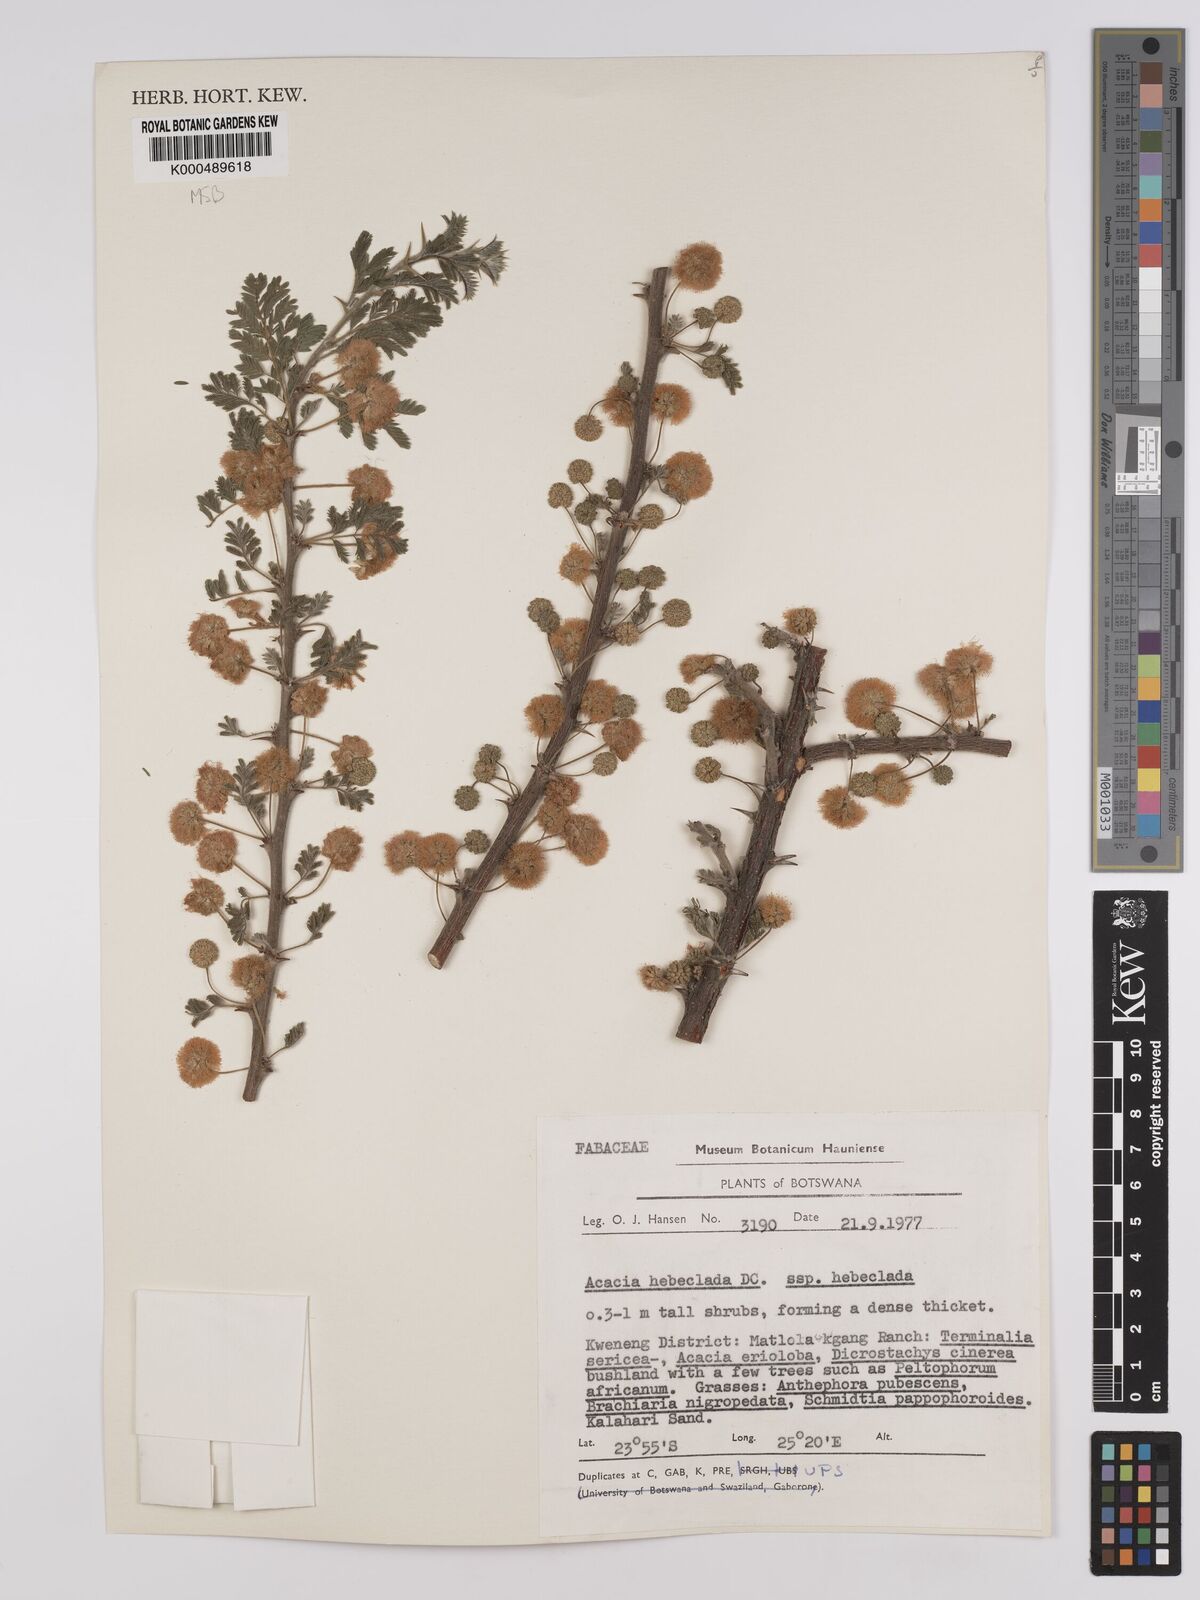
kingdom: Plantae
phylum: Tracheophyta
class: Magnoliopsida
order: Fabales
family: Fabaceae
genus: Vachellia
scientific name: Vachellia hebeclada
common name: Candle thorn
